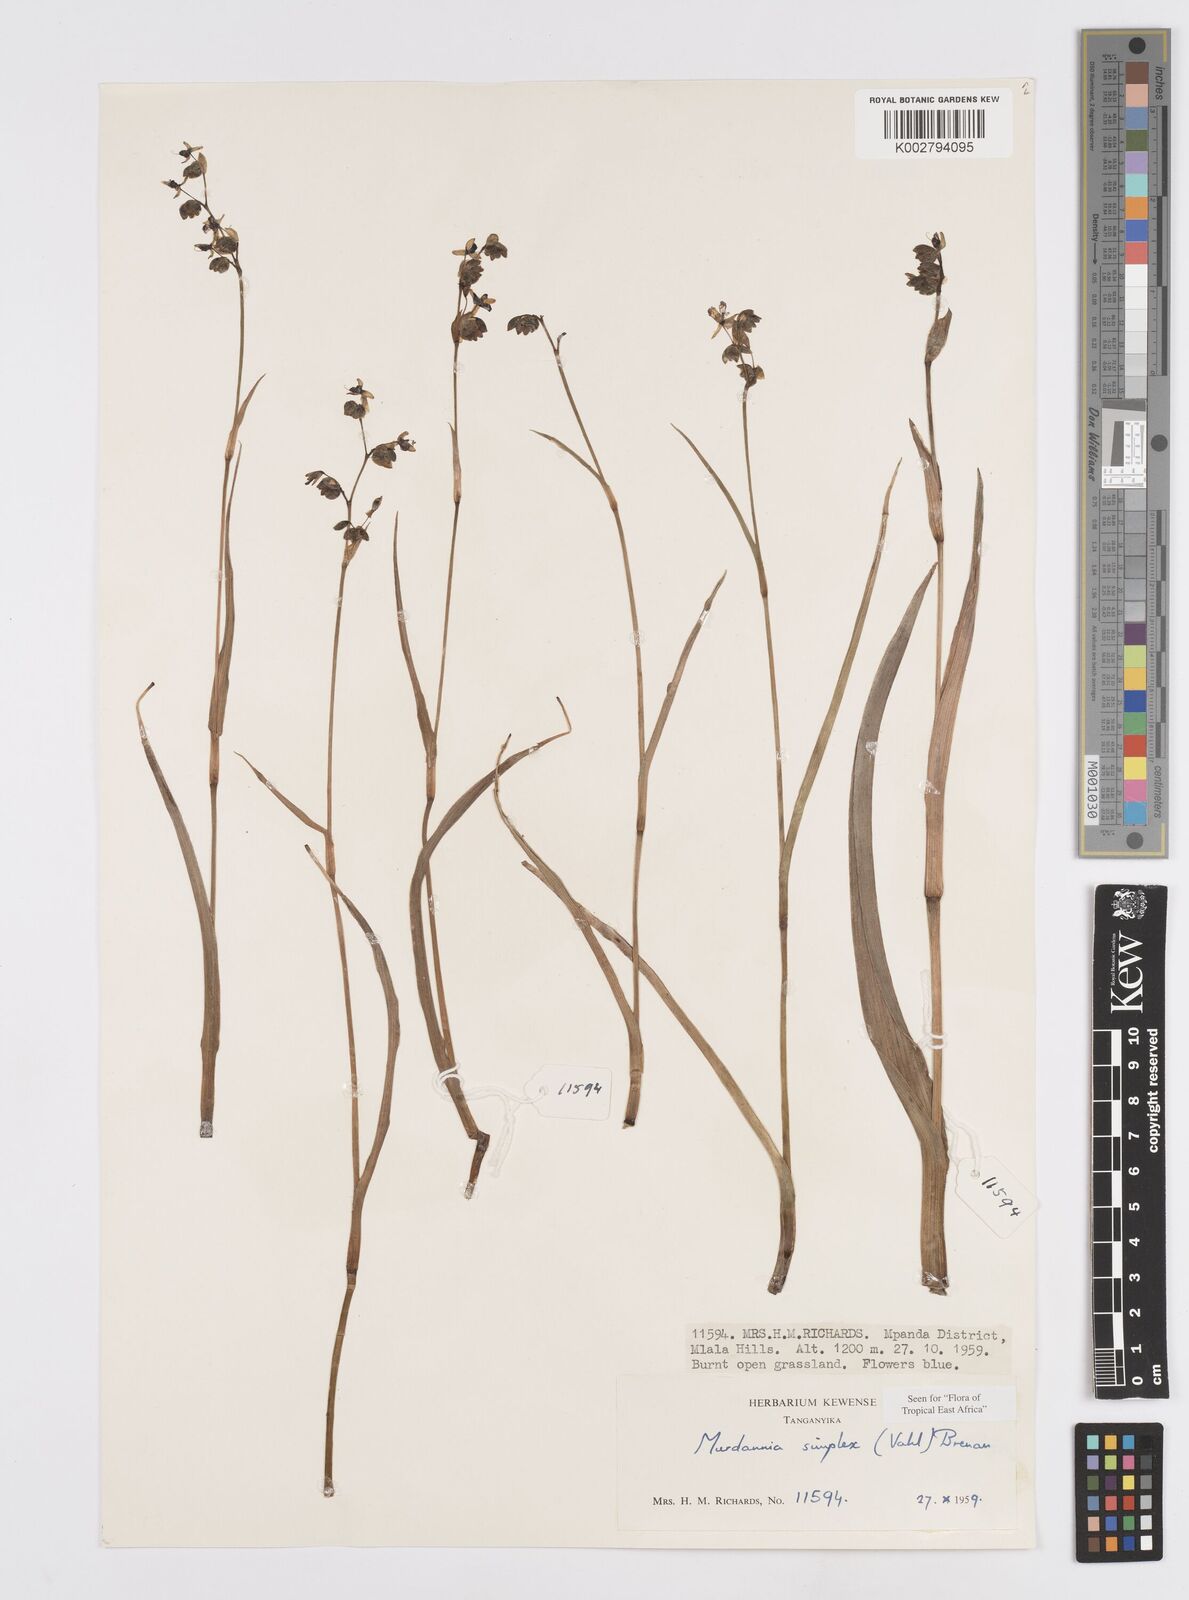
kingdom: Plantae
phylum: Tracheophyta
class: Liliopsida
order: Commelinales
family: Commelinaceae
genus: Murdannia
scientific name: Murdannia simplex
